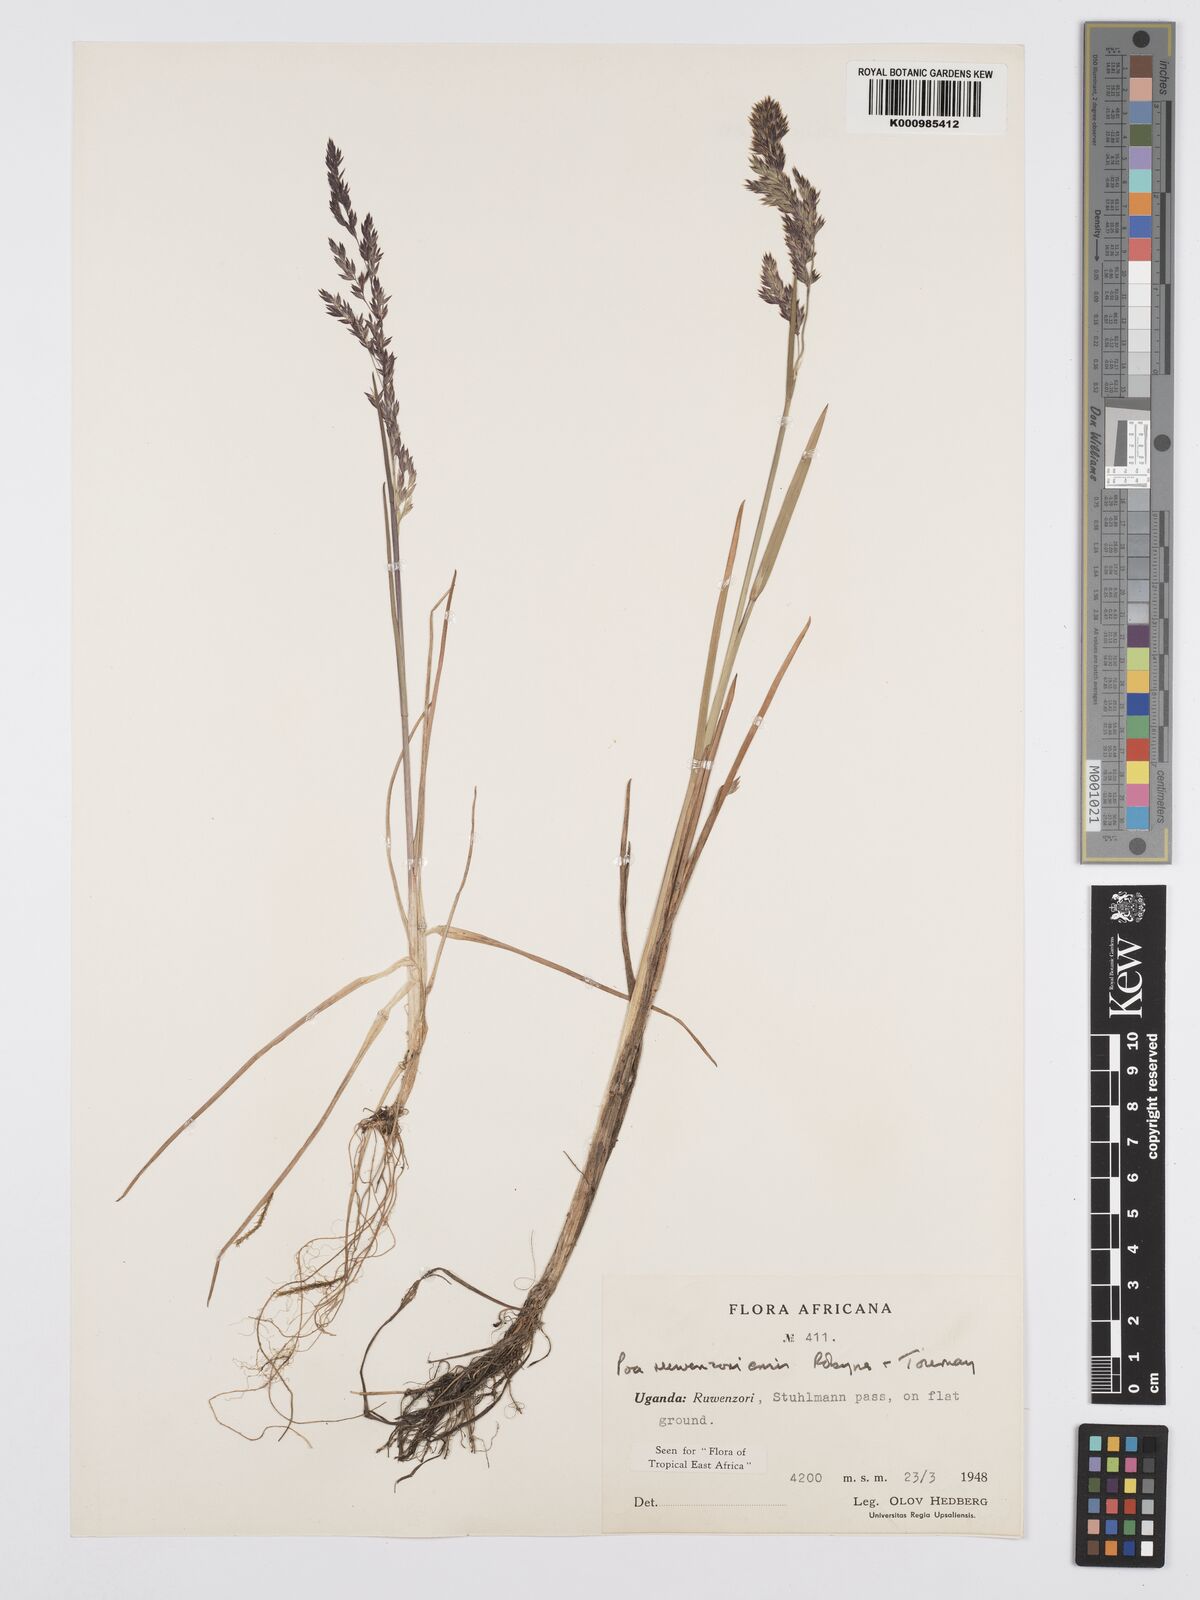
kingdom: Plantae
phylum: Tracheophyta
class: Liliopsida
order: Poales
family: Poaceae
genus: Poa
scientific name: Poa ruwenzoriensis
